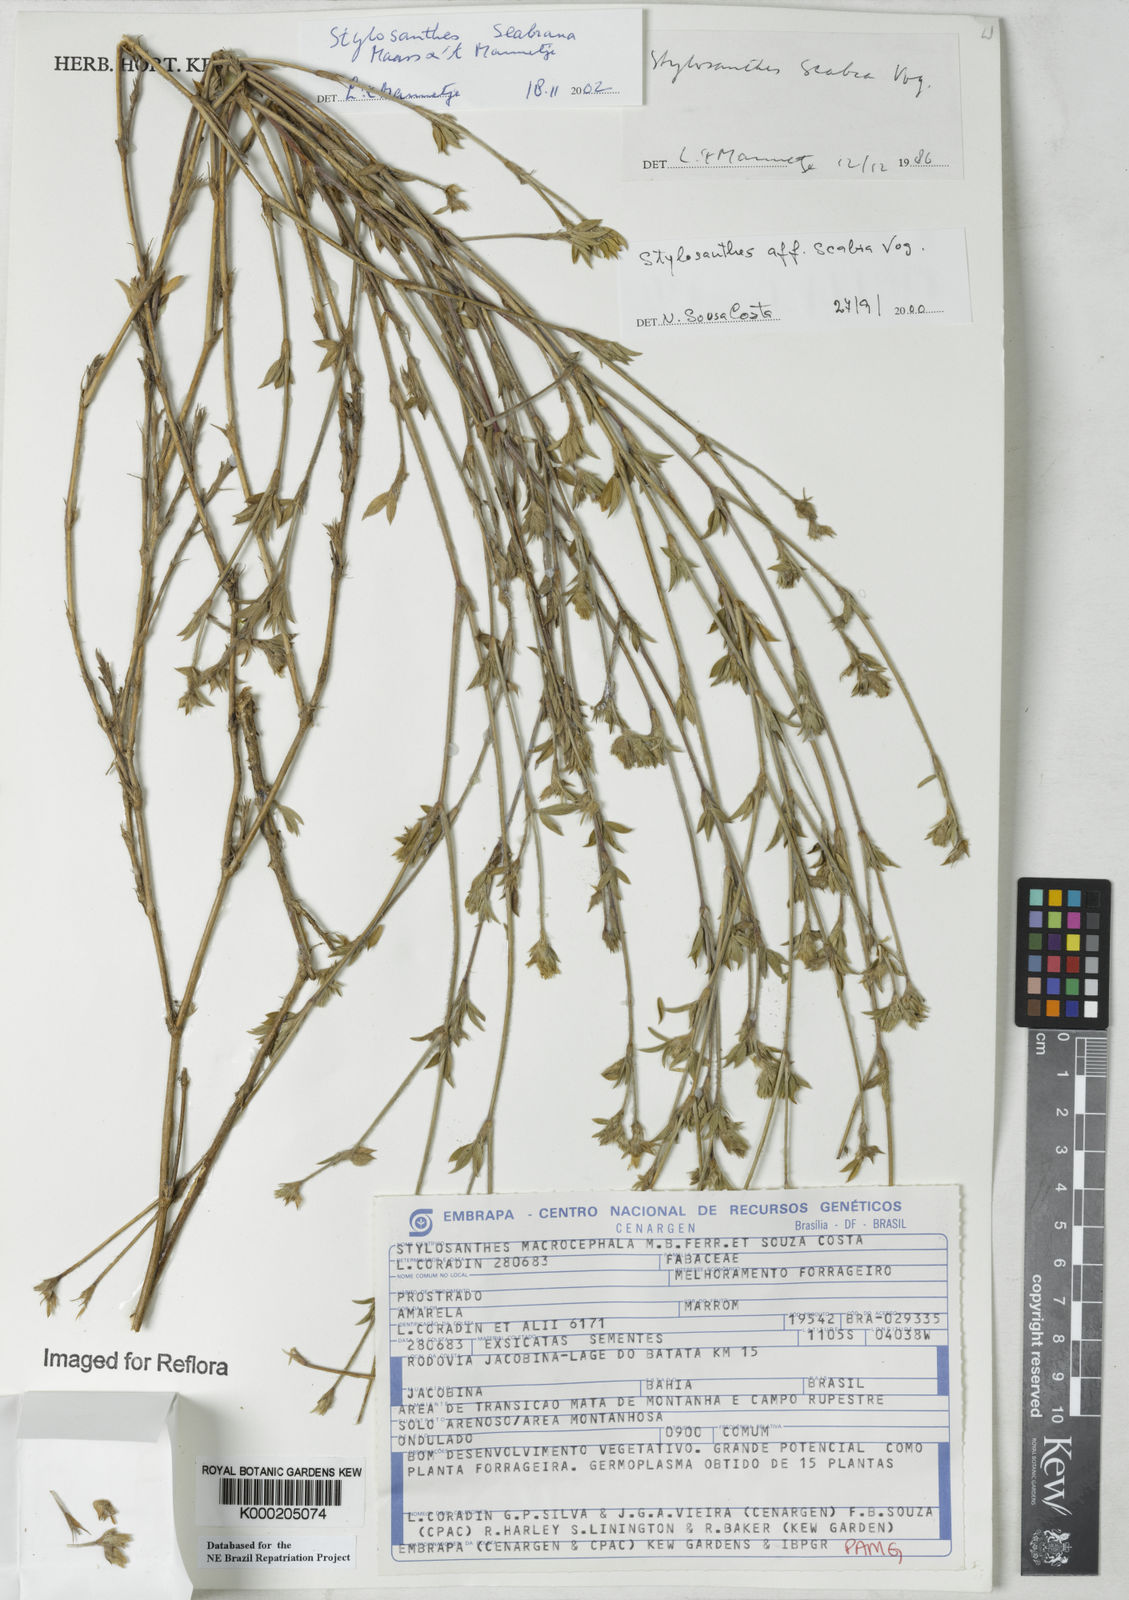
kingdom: Plantae
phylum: Tracheophyta
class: Magnoliopsida
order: Fabales
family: Fabaceae
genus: Stylosanthes
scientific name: Stylosanthes scabra
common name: Pencilflower
